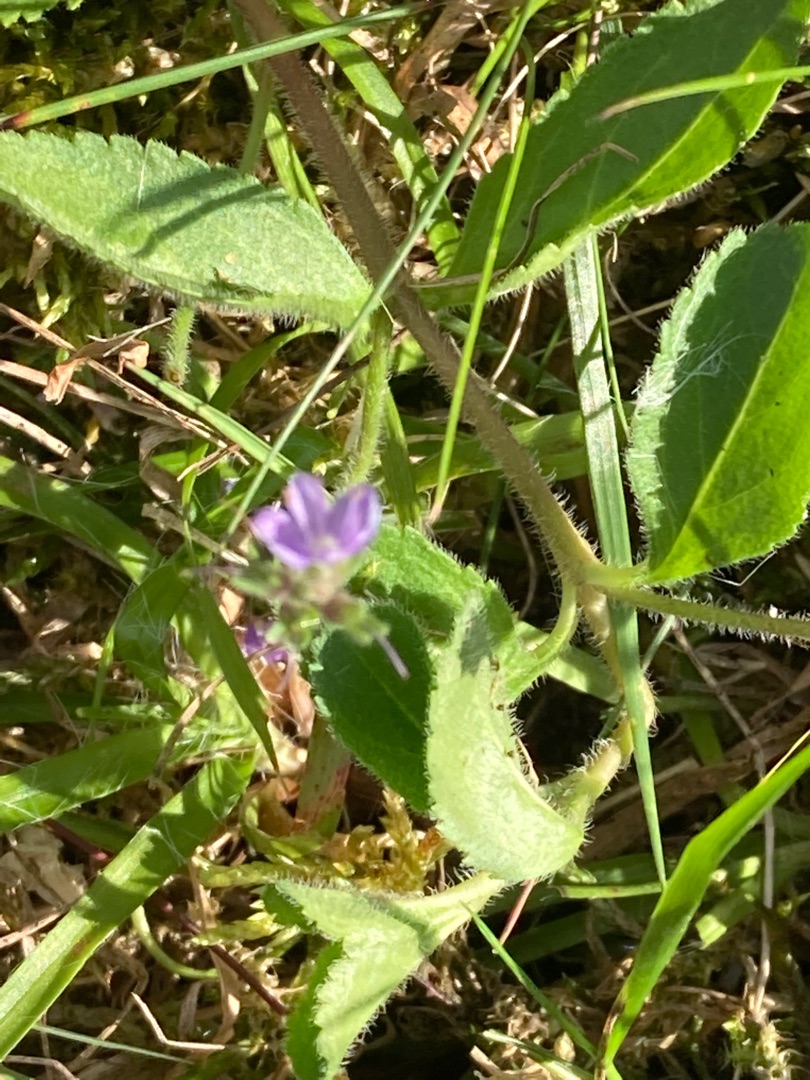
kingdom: Plantae
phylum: Tracheophyta
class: Magnoliopsida
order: Lamiales
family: Plantaginaceae
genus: Veronica
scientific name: Veronica officinalis
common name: Læge-ærenpris
